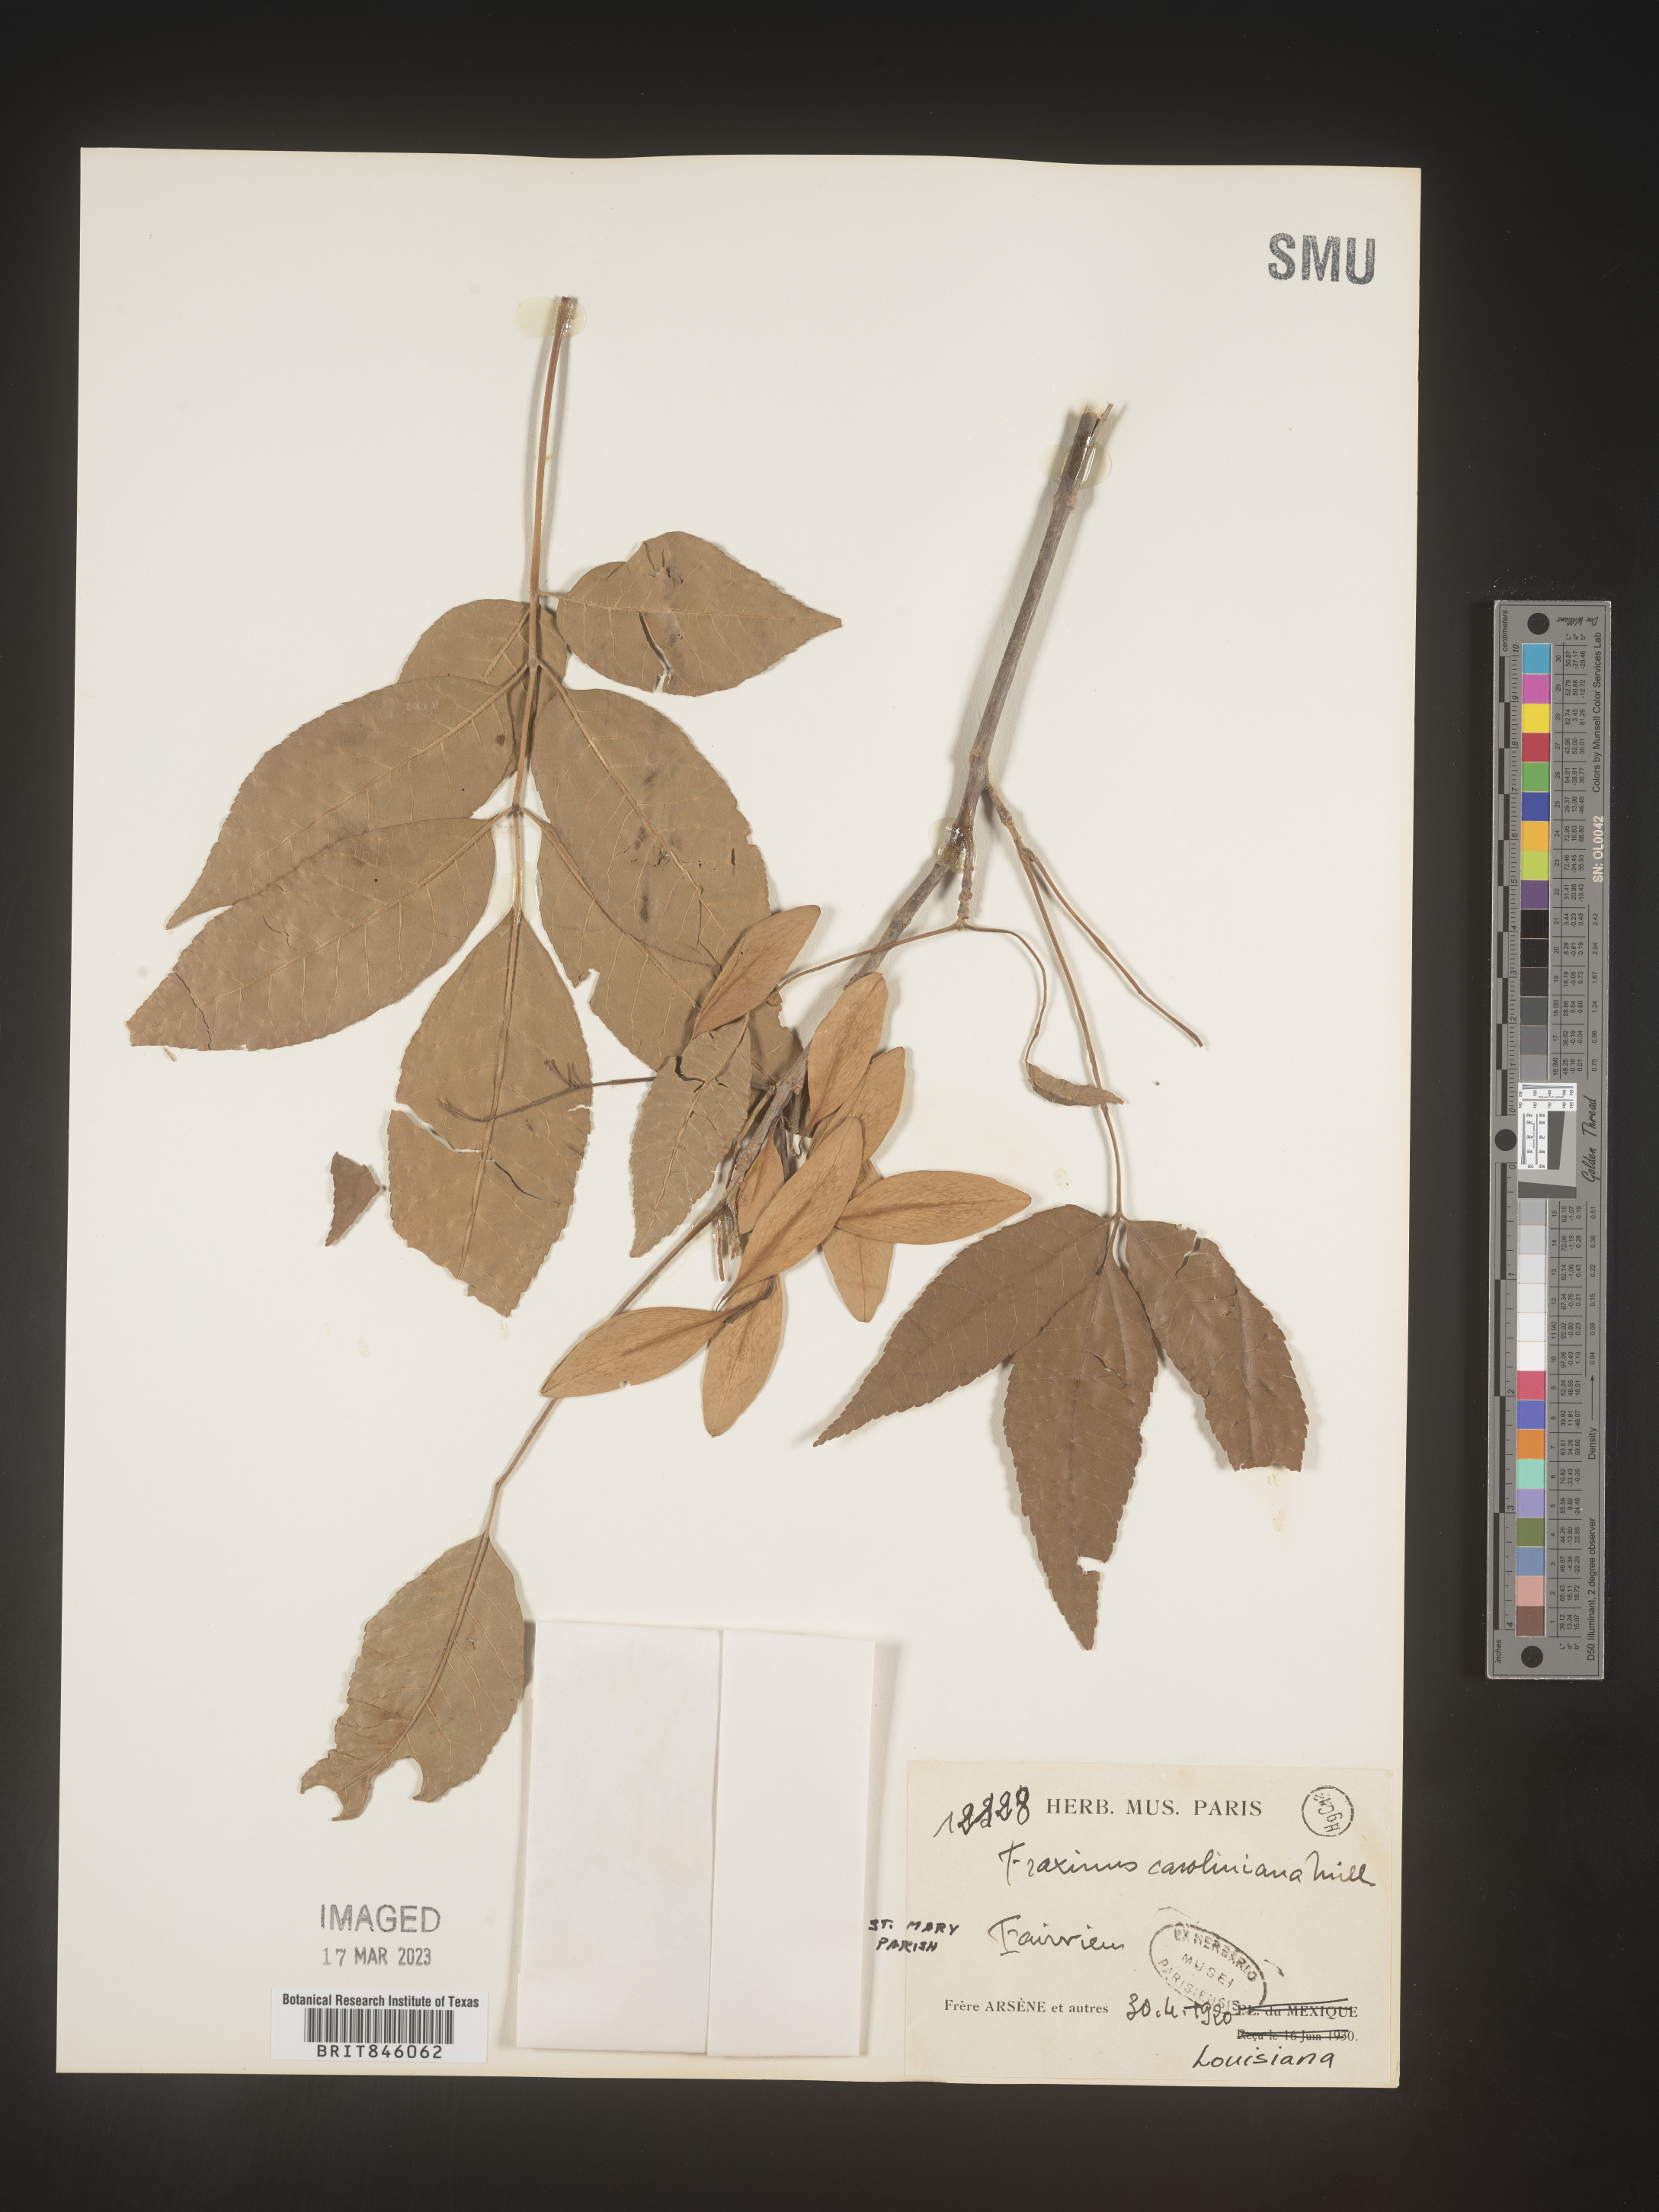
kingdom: Plantae
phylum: Tracheophyta
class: Magnoliopsida
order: Lamiales
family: Oleaceae
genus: Fraxinus
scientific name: Fraxinus caroliniana
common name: Carolina ash
